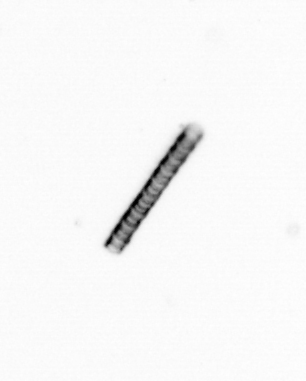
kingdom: Chromista
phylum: Ochrophyta
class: Bacillariophyceae
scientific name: Bacillariophyceae
